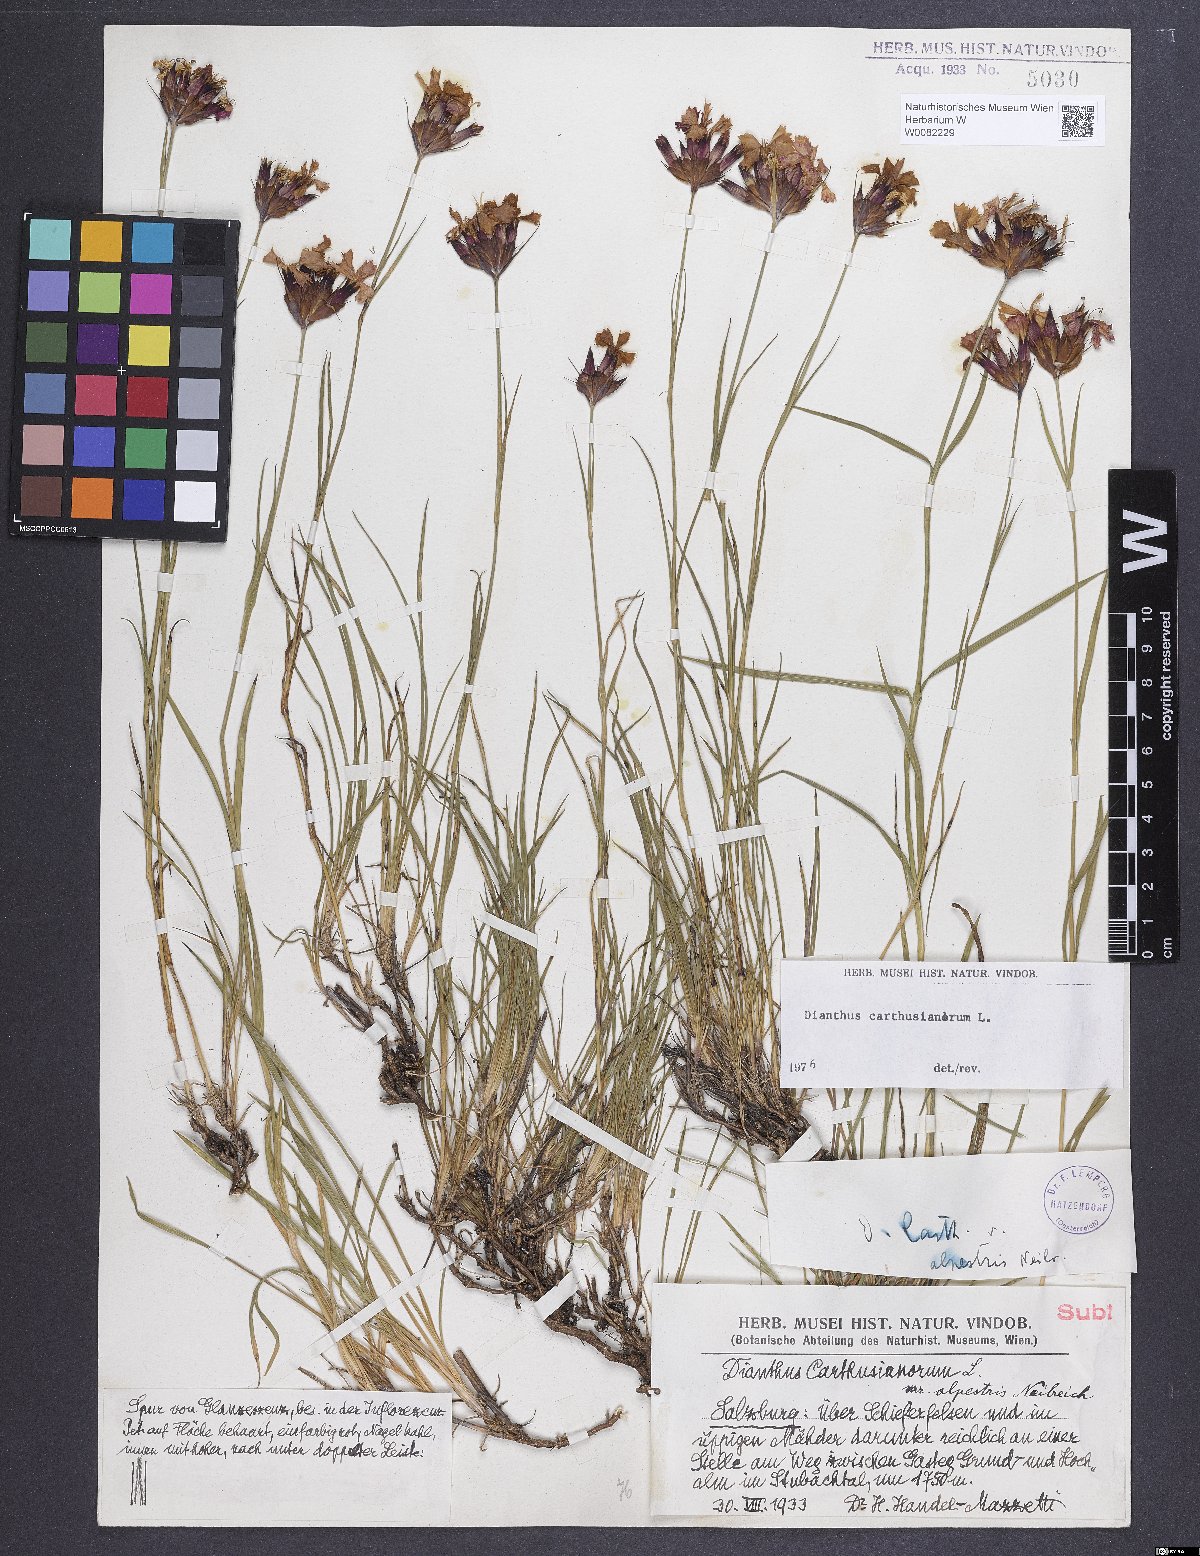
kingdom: Plantae
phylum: Tracheophyta
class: Magnoliopsida
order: Caryophyllales
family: Caryophyllaceae
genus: Dianthus
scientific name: Dianthus carthusianorum
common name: Carthusian pink
